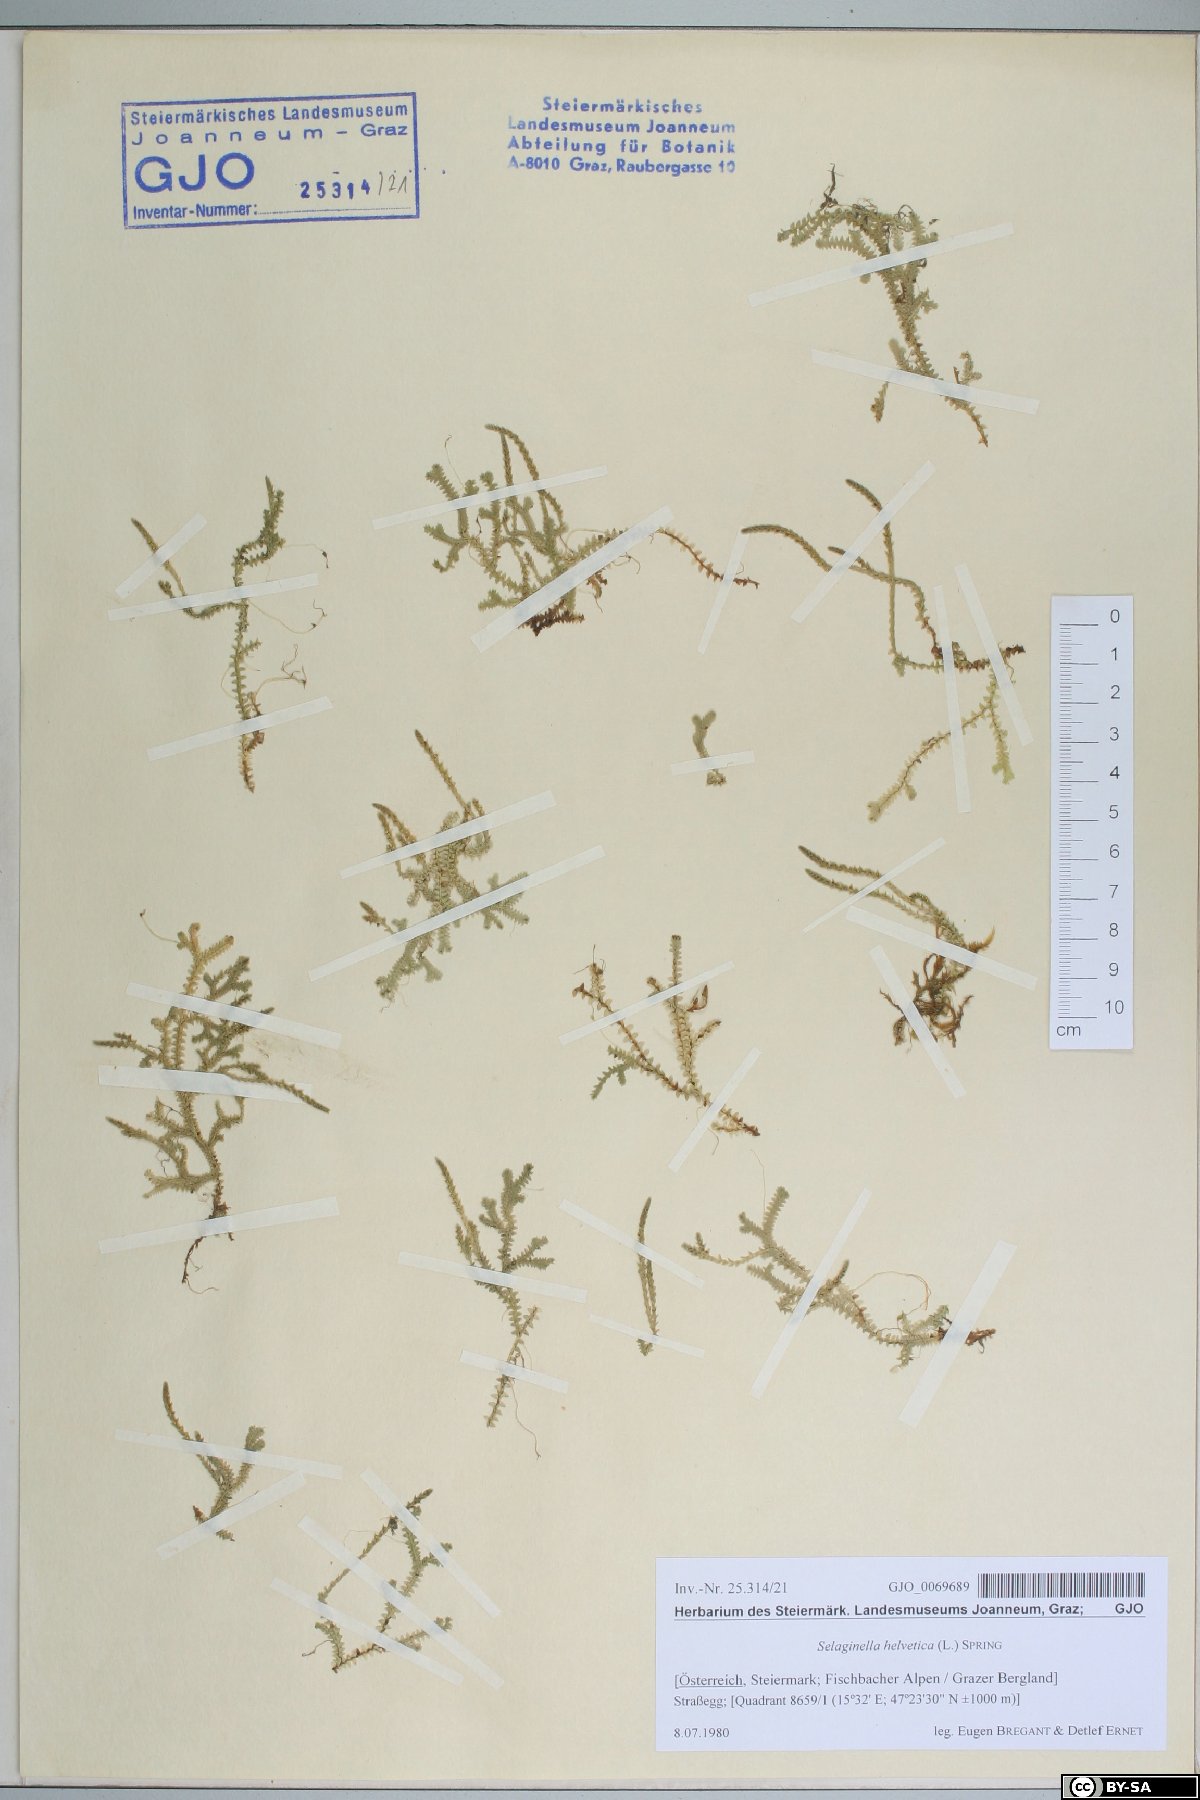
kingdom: Plantae
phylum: Tracheophyta
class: Lycopodiopsida
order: Selaginellales
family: Selaginellaceae
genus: Selaginella
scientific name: Selaginella helvetica
